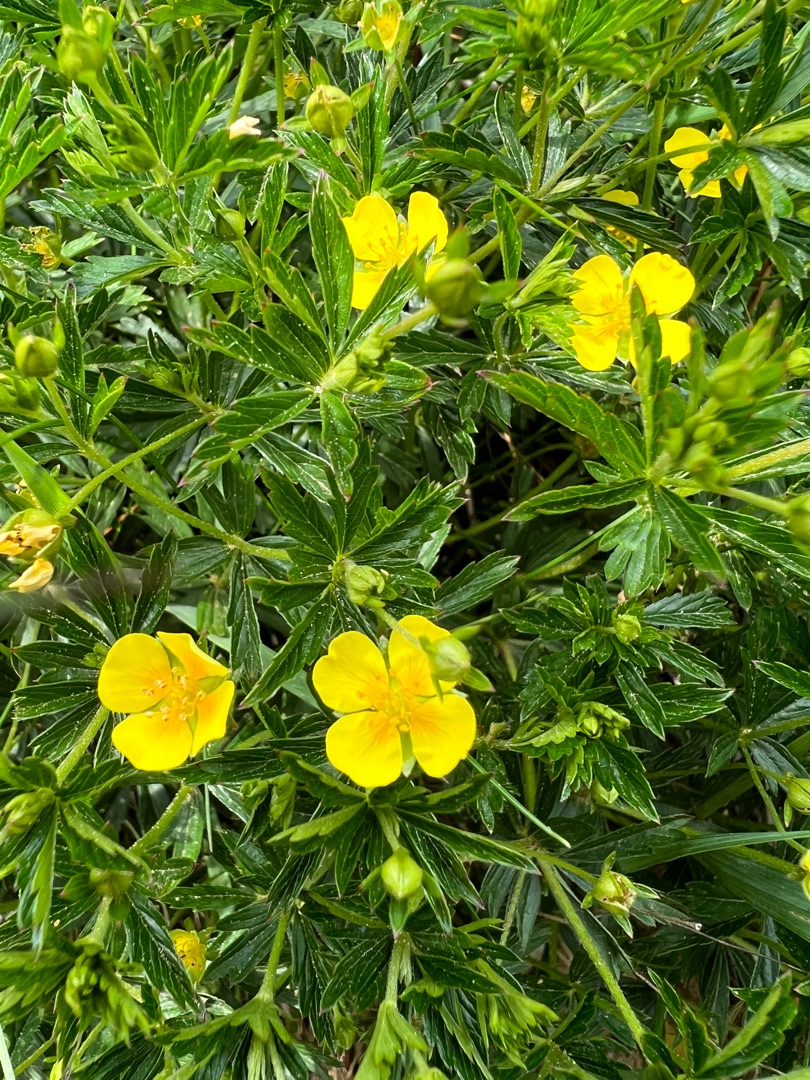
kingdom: Plantae
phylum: Tracheophyta
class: Magnoliopsida
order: Rosales
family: Rosaceae
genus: Potentilla
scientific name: Potentilla erecta
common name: Tormentil
